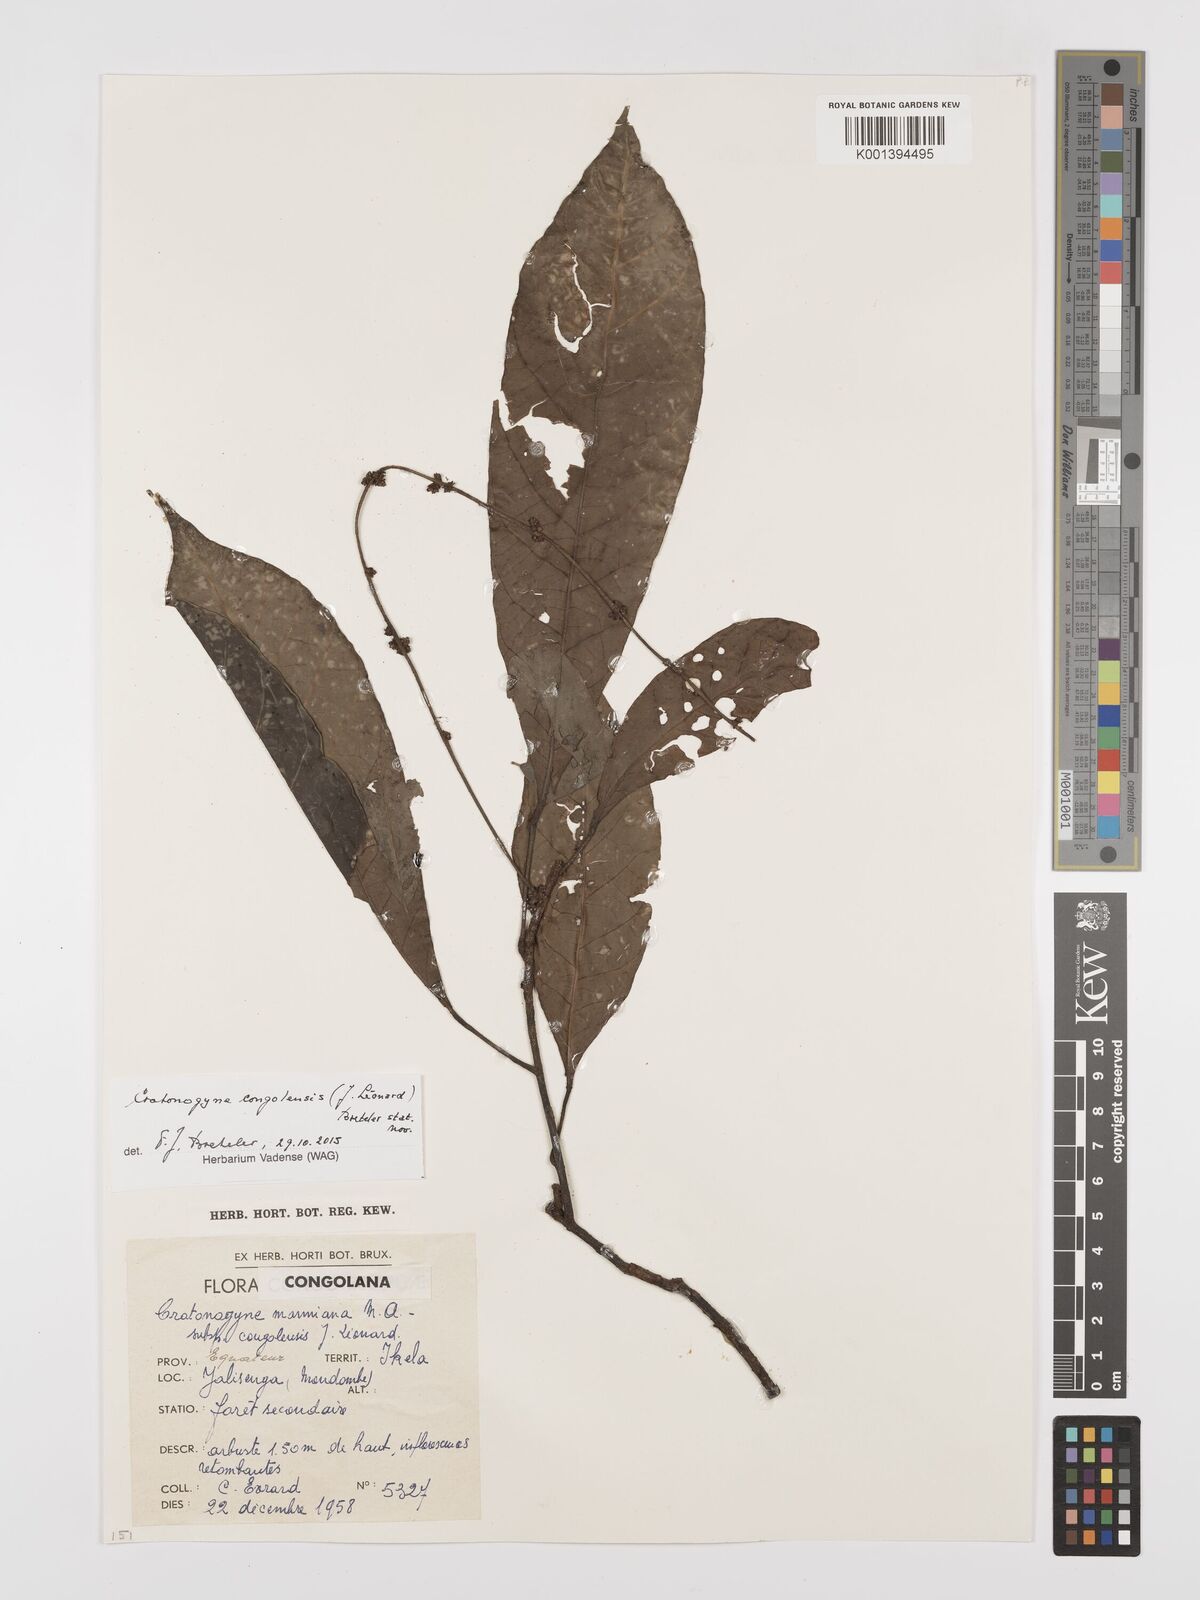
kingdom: Plantae
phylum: Tracheophyta
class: Magnoliopsida
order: Malpighiales
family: Euphorbiaceae
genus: Crotonogyne
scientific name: Crotonogyne
